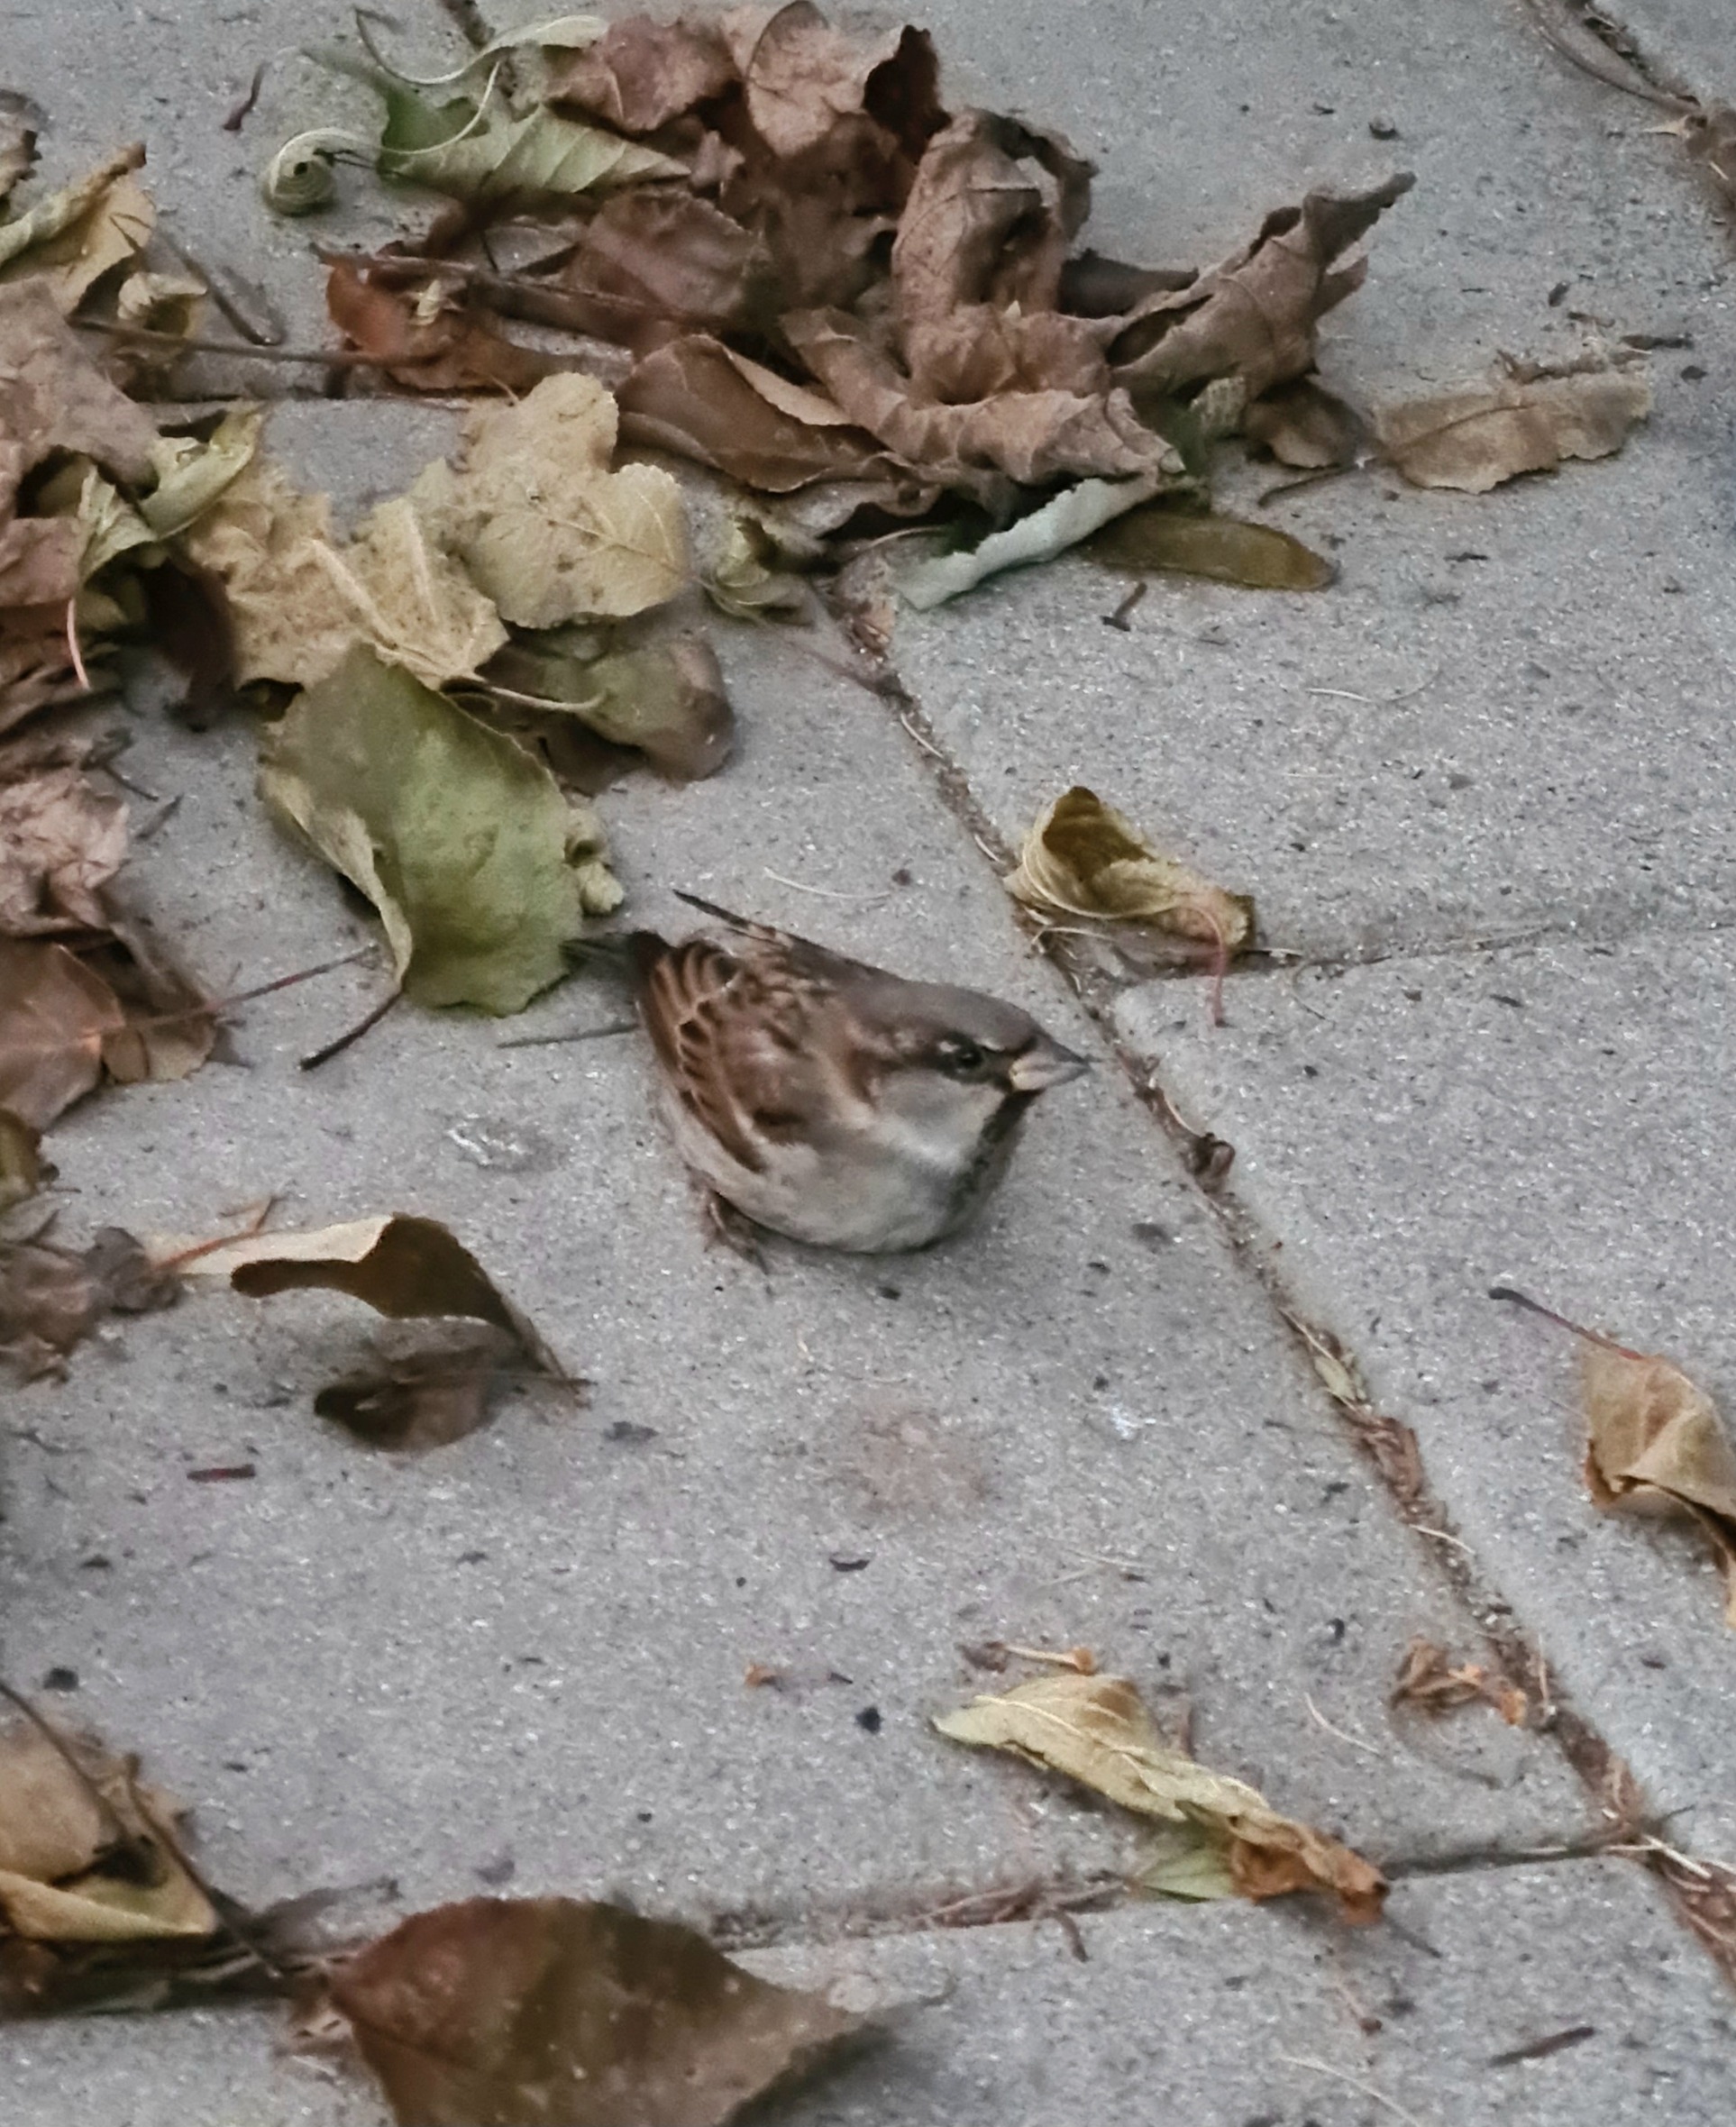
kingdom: Animalia
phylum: Chordata
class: Aves
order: Passeriformes
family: Passeridae
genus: Passer
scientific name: Passer domesticus
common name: Gråspurv
